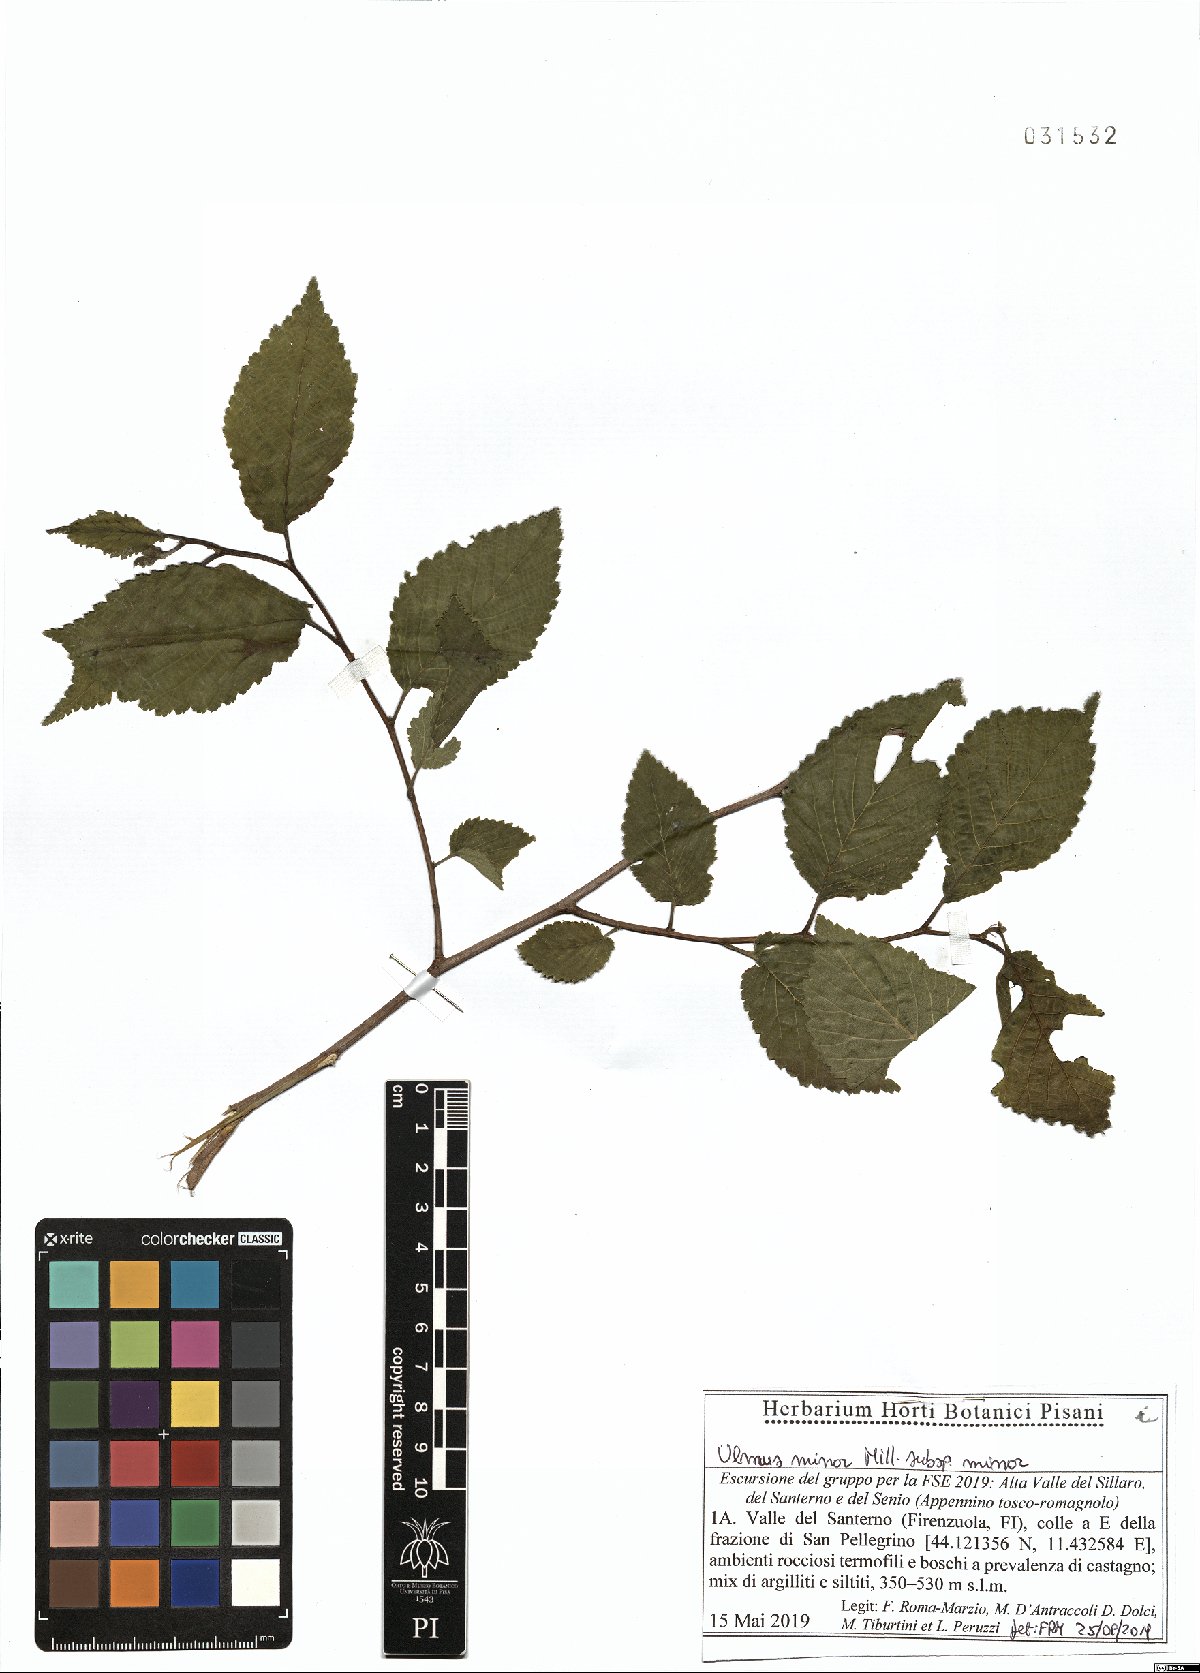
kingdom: Plantae
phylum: Tracheophyta
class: Magnoliopsida
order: Rosales
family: Ulmaceae
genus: Ulmus
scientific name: Ulmus minor
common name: Small-leaved elm
